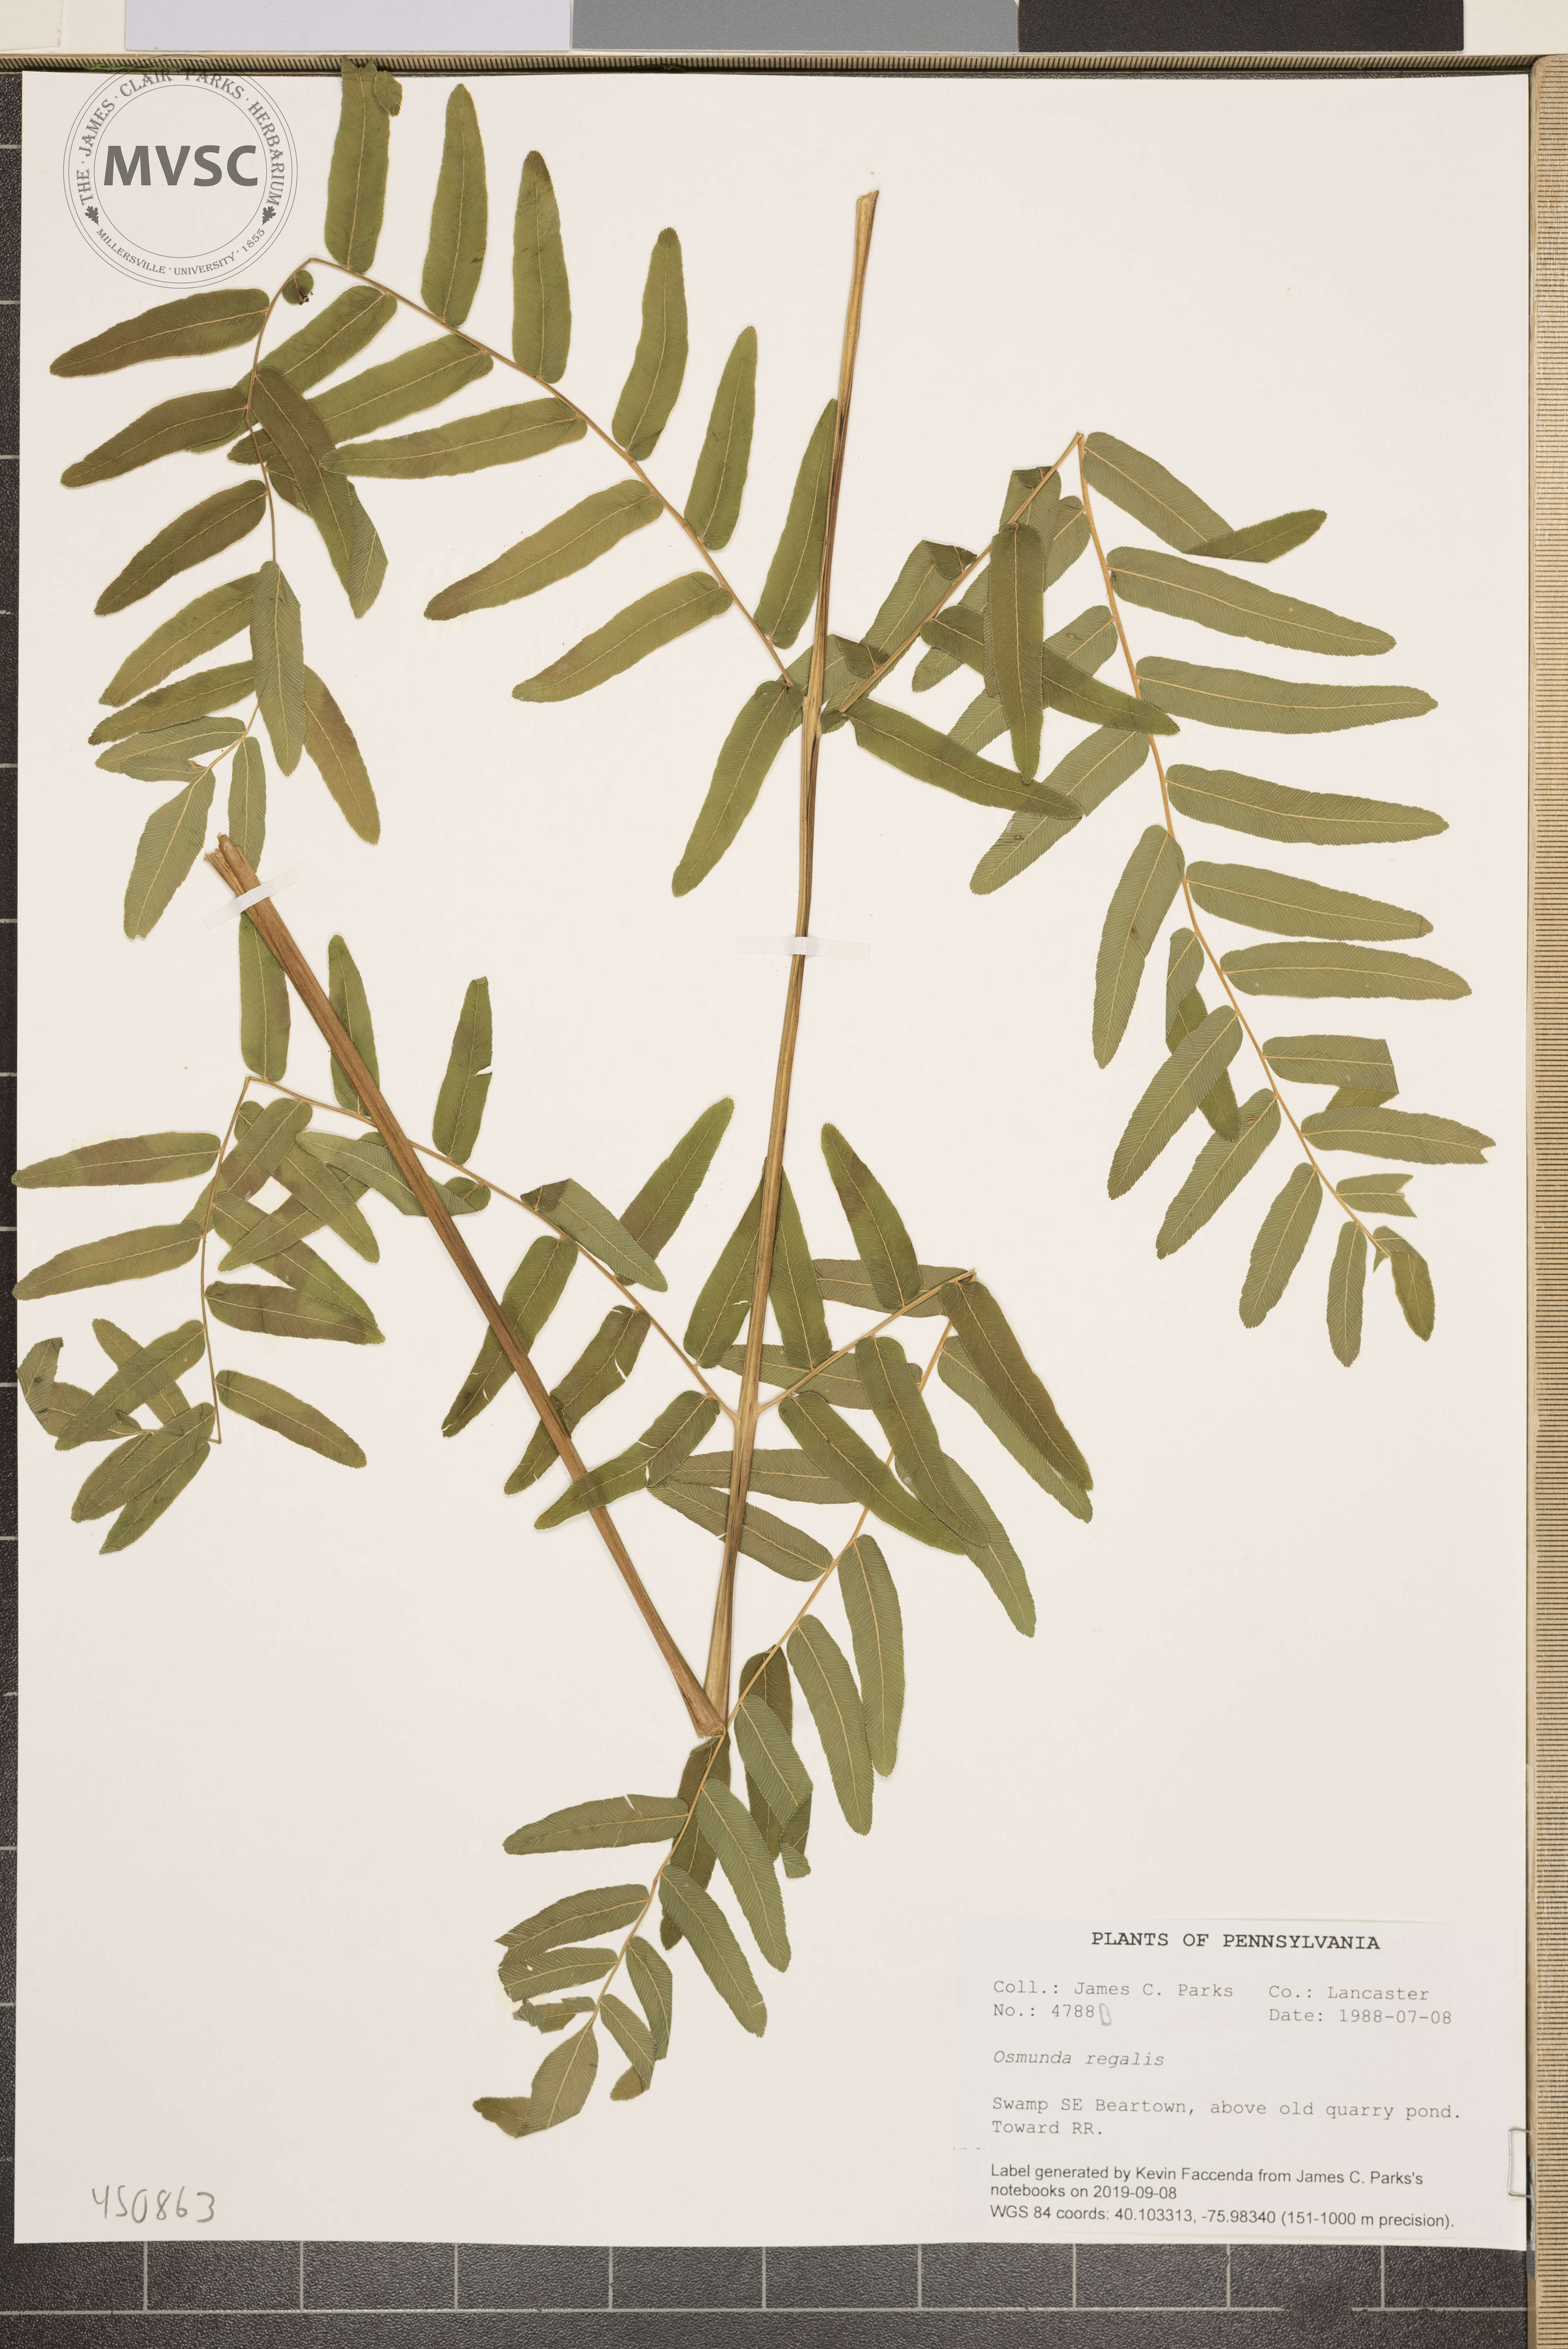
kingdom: Plantae
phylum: Tracheophyta
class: Polypodiopsida
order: Osmundales
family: Osmundaceae
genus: Osmunda
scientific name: Osmunda regalis
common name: Royal fern
